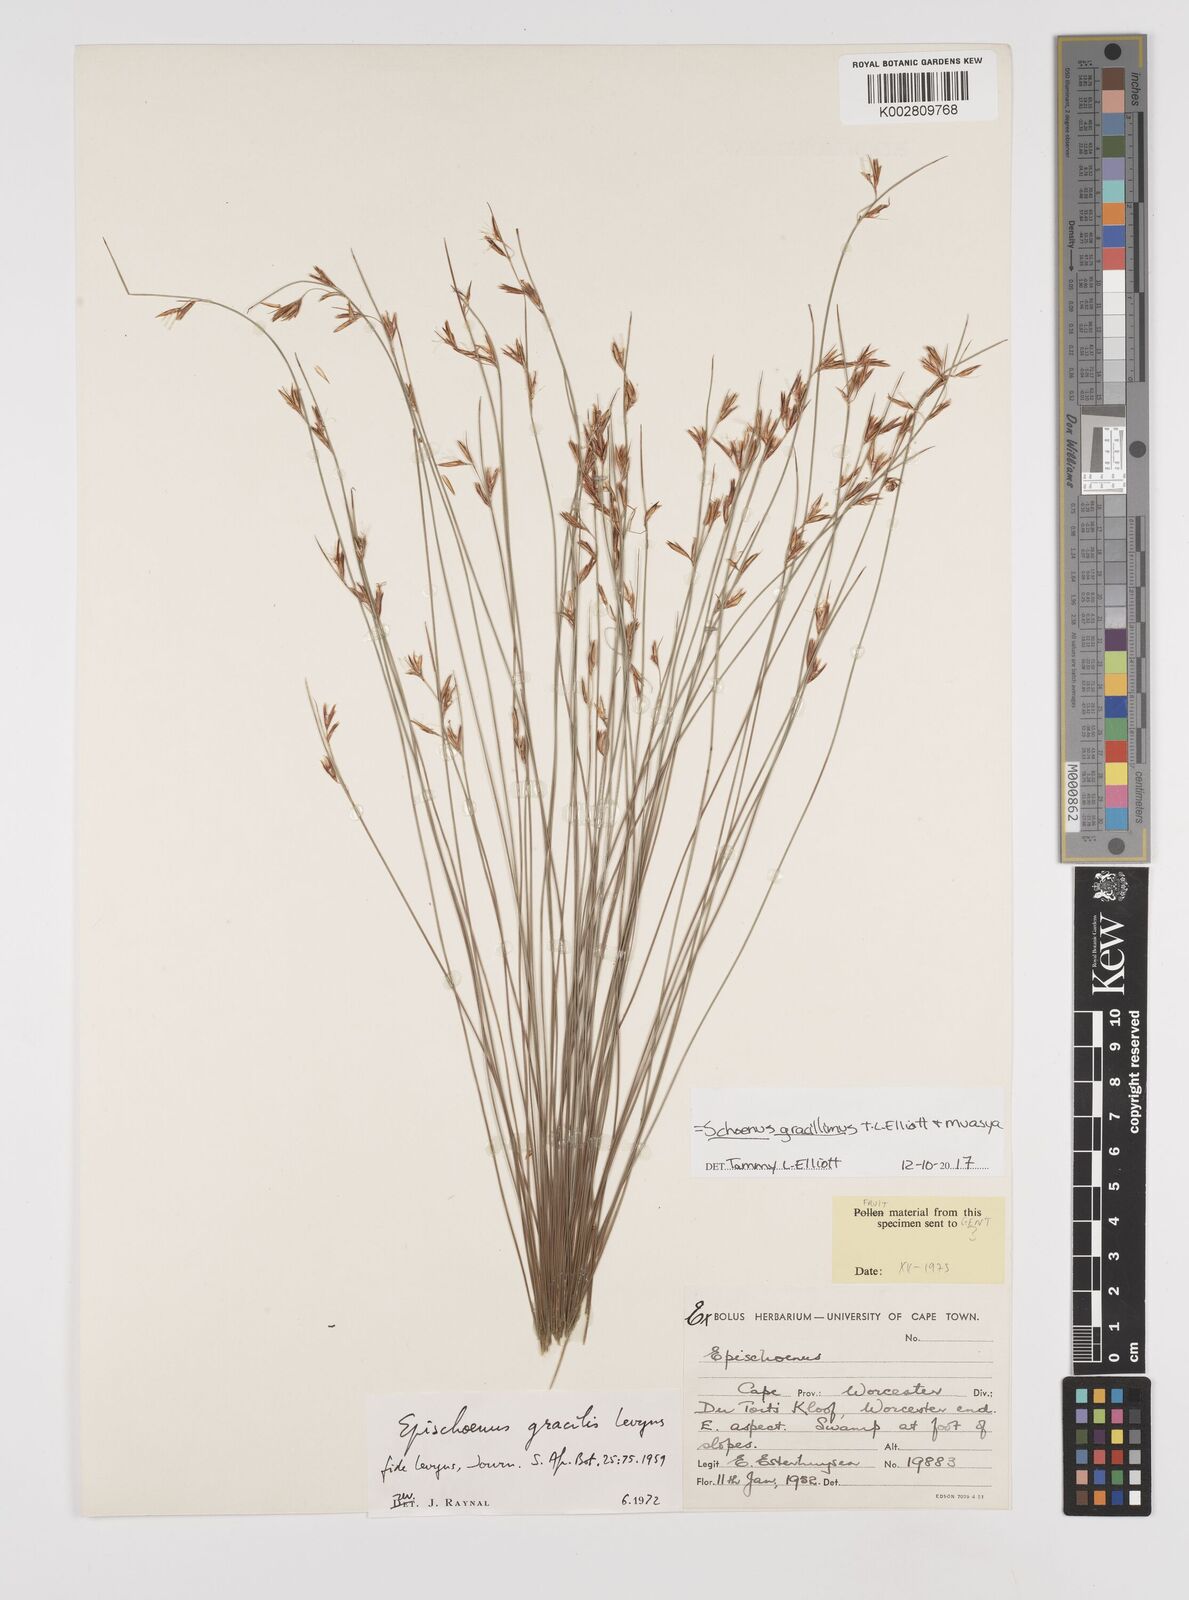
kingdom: Plantae
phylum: Tracheophyta
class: Liliopsida
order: Poales
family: Cyperaceae
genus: Rhynchospora
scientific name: Rhynchospora racemosa
